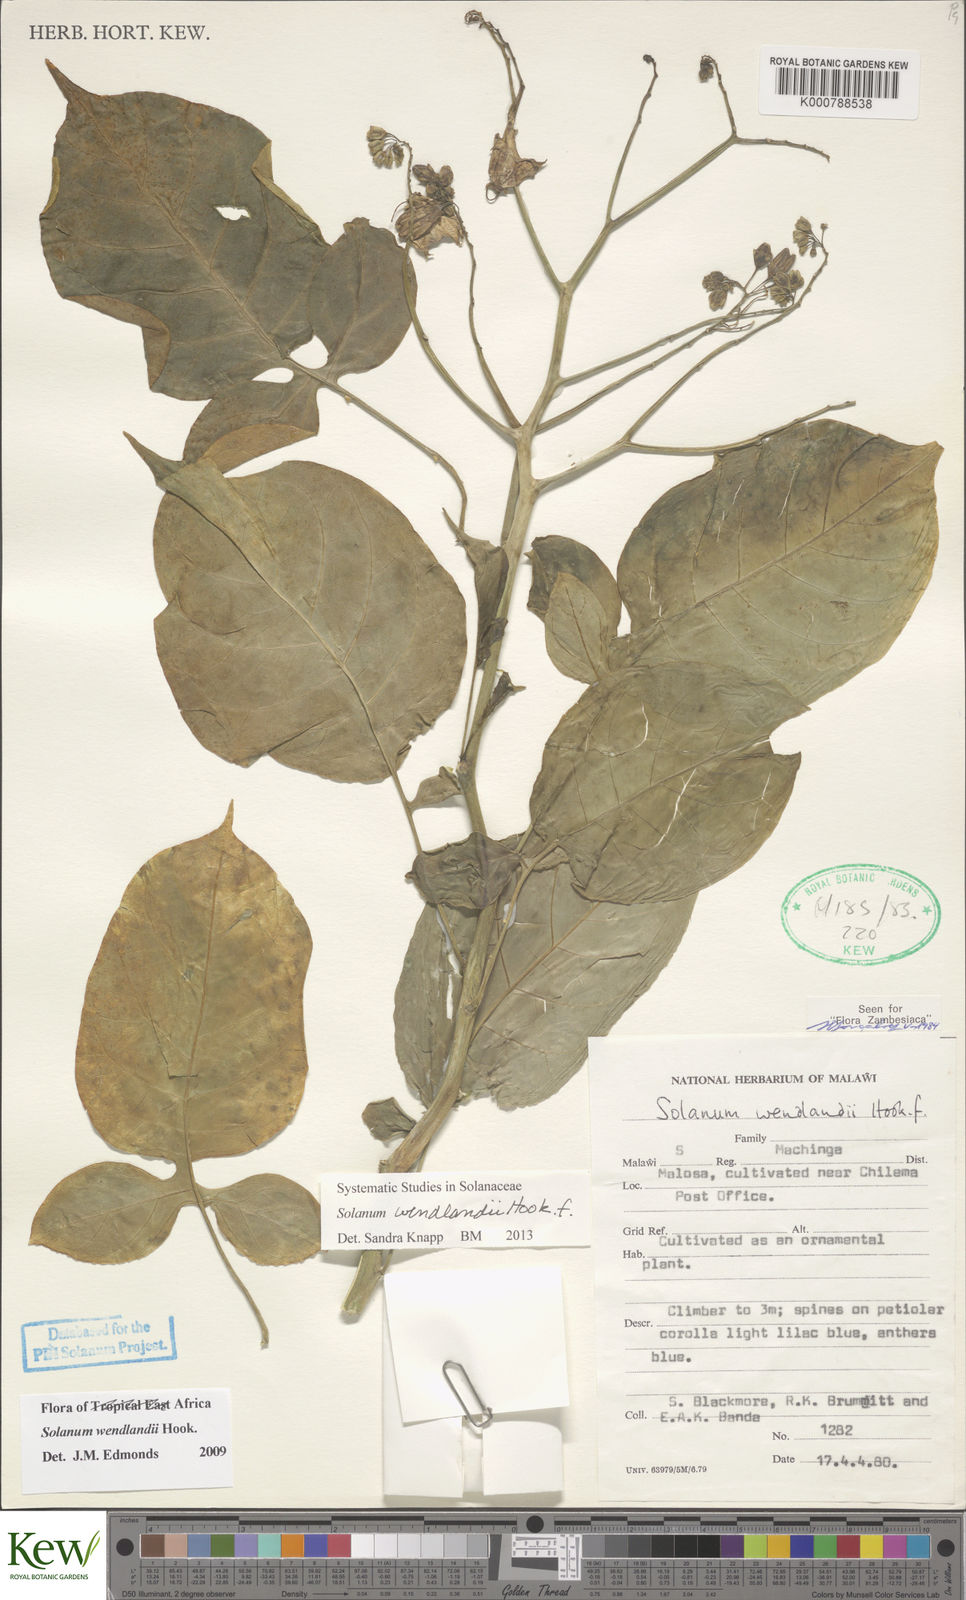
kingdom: Plantae
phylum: Tracheophyta
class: Magnoliopsida
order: Solanales
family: Solanaceae
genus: Solanum
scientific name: Solanum wendlandii
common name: Costa rican nightshade
